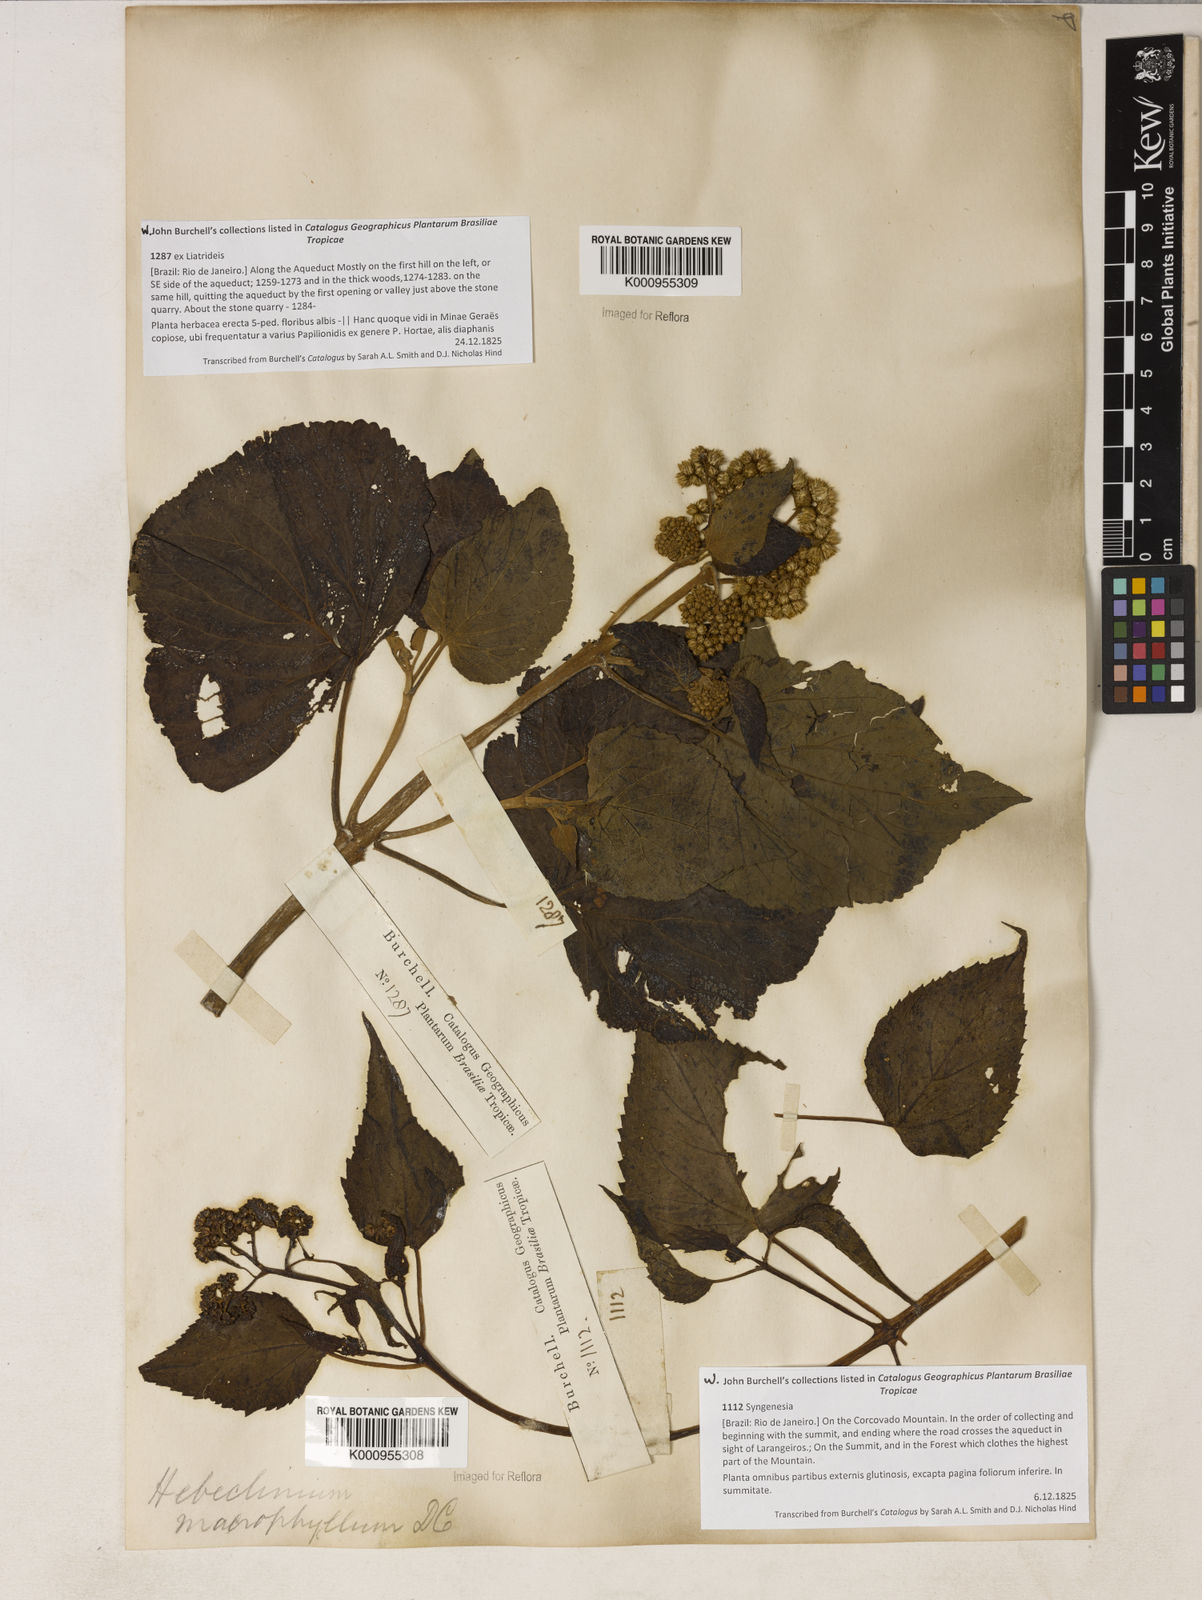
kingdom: Plantae
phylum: Tracheophyta
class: Magnoliopsida
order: Asterales
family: Asteraceae
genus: Hebeclinium
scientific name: Hebeclinium macrophyllum
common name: Largeleaf thoroughwort
